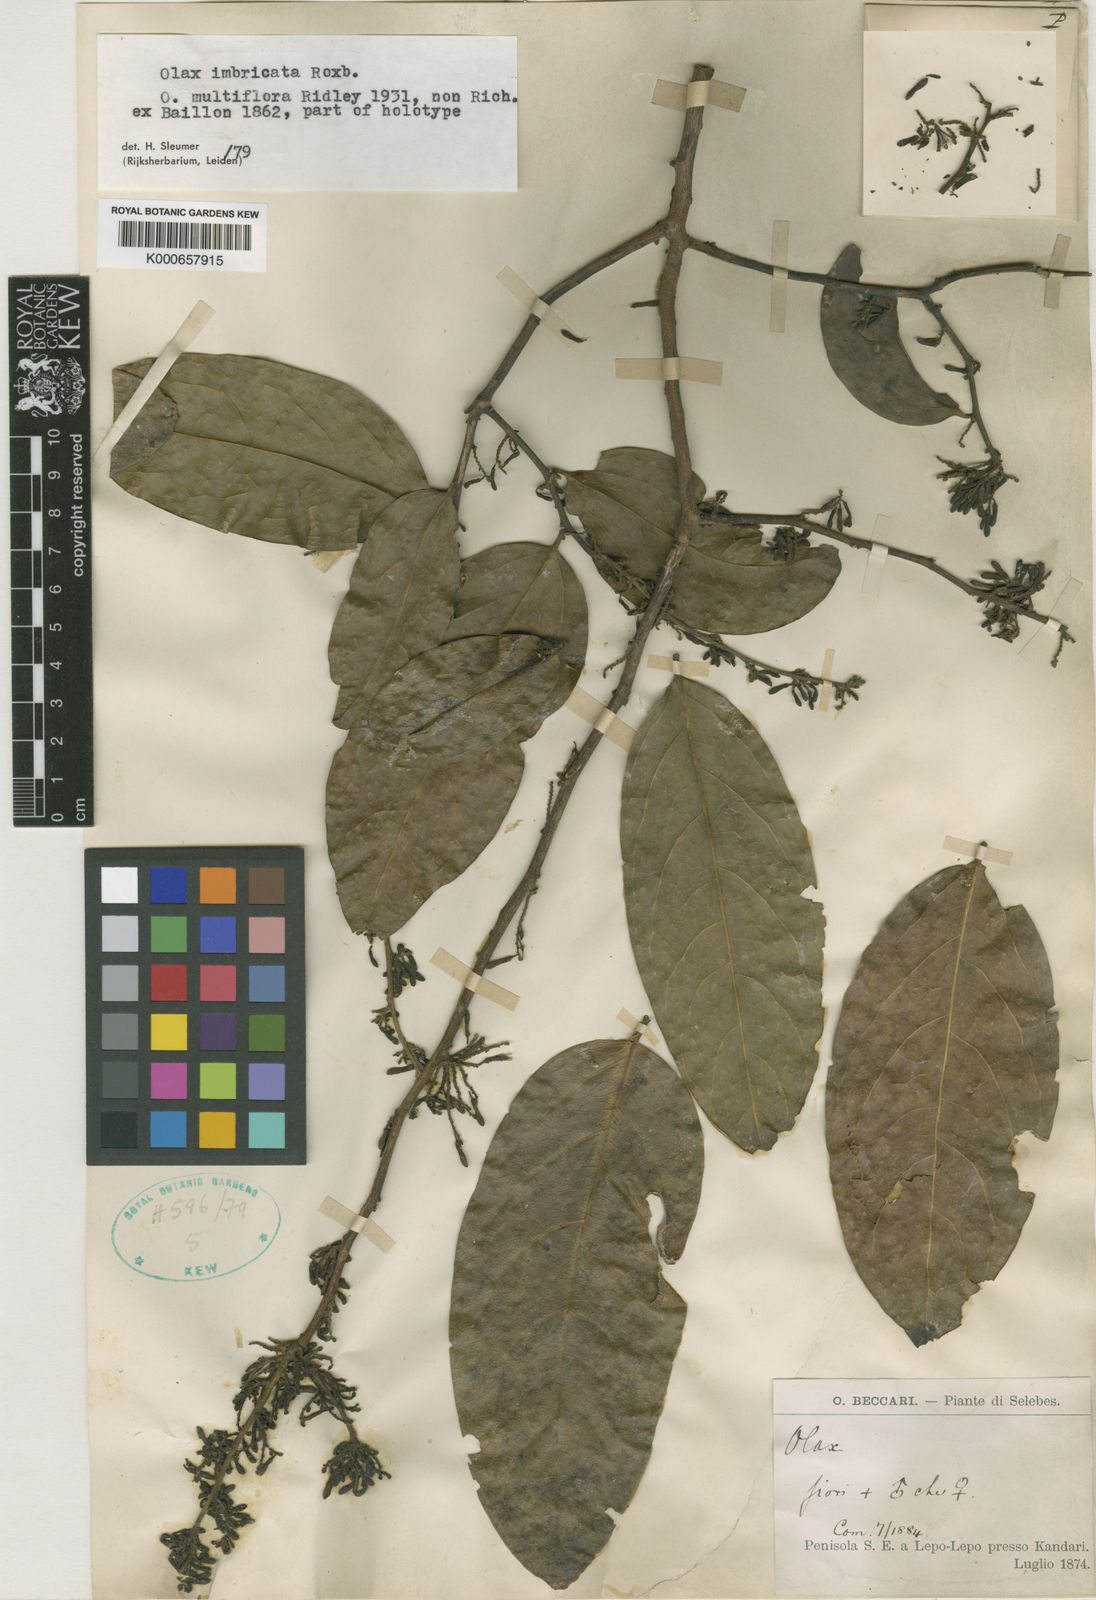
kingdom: Plantae
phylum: Tracheophyta
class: Magnoliopsida
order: Santalales
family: Olacaceae
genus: Olax
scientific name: Olax imbricata
